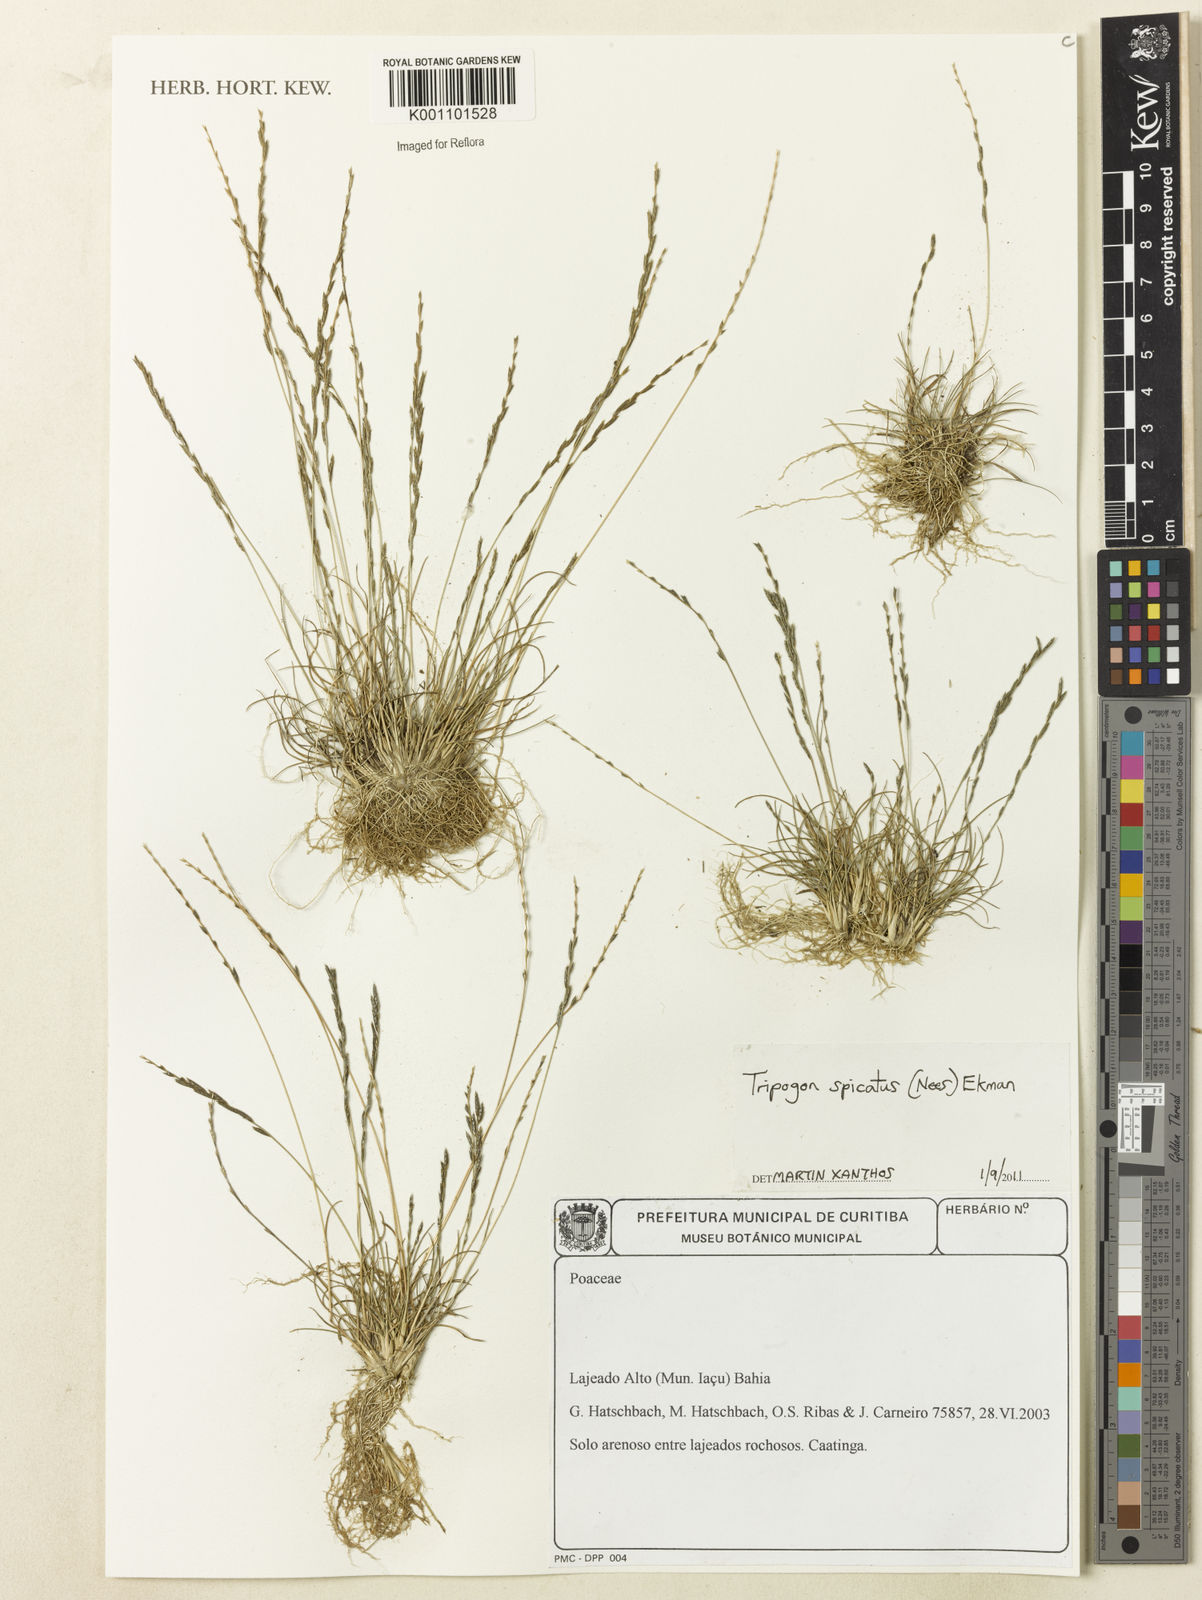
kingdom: Plantae
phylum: Tracheophyta
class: Liliopsida
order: Poales
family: Poaceae
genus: Tripogonella
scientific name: Tripogonella spicata
